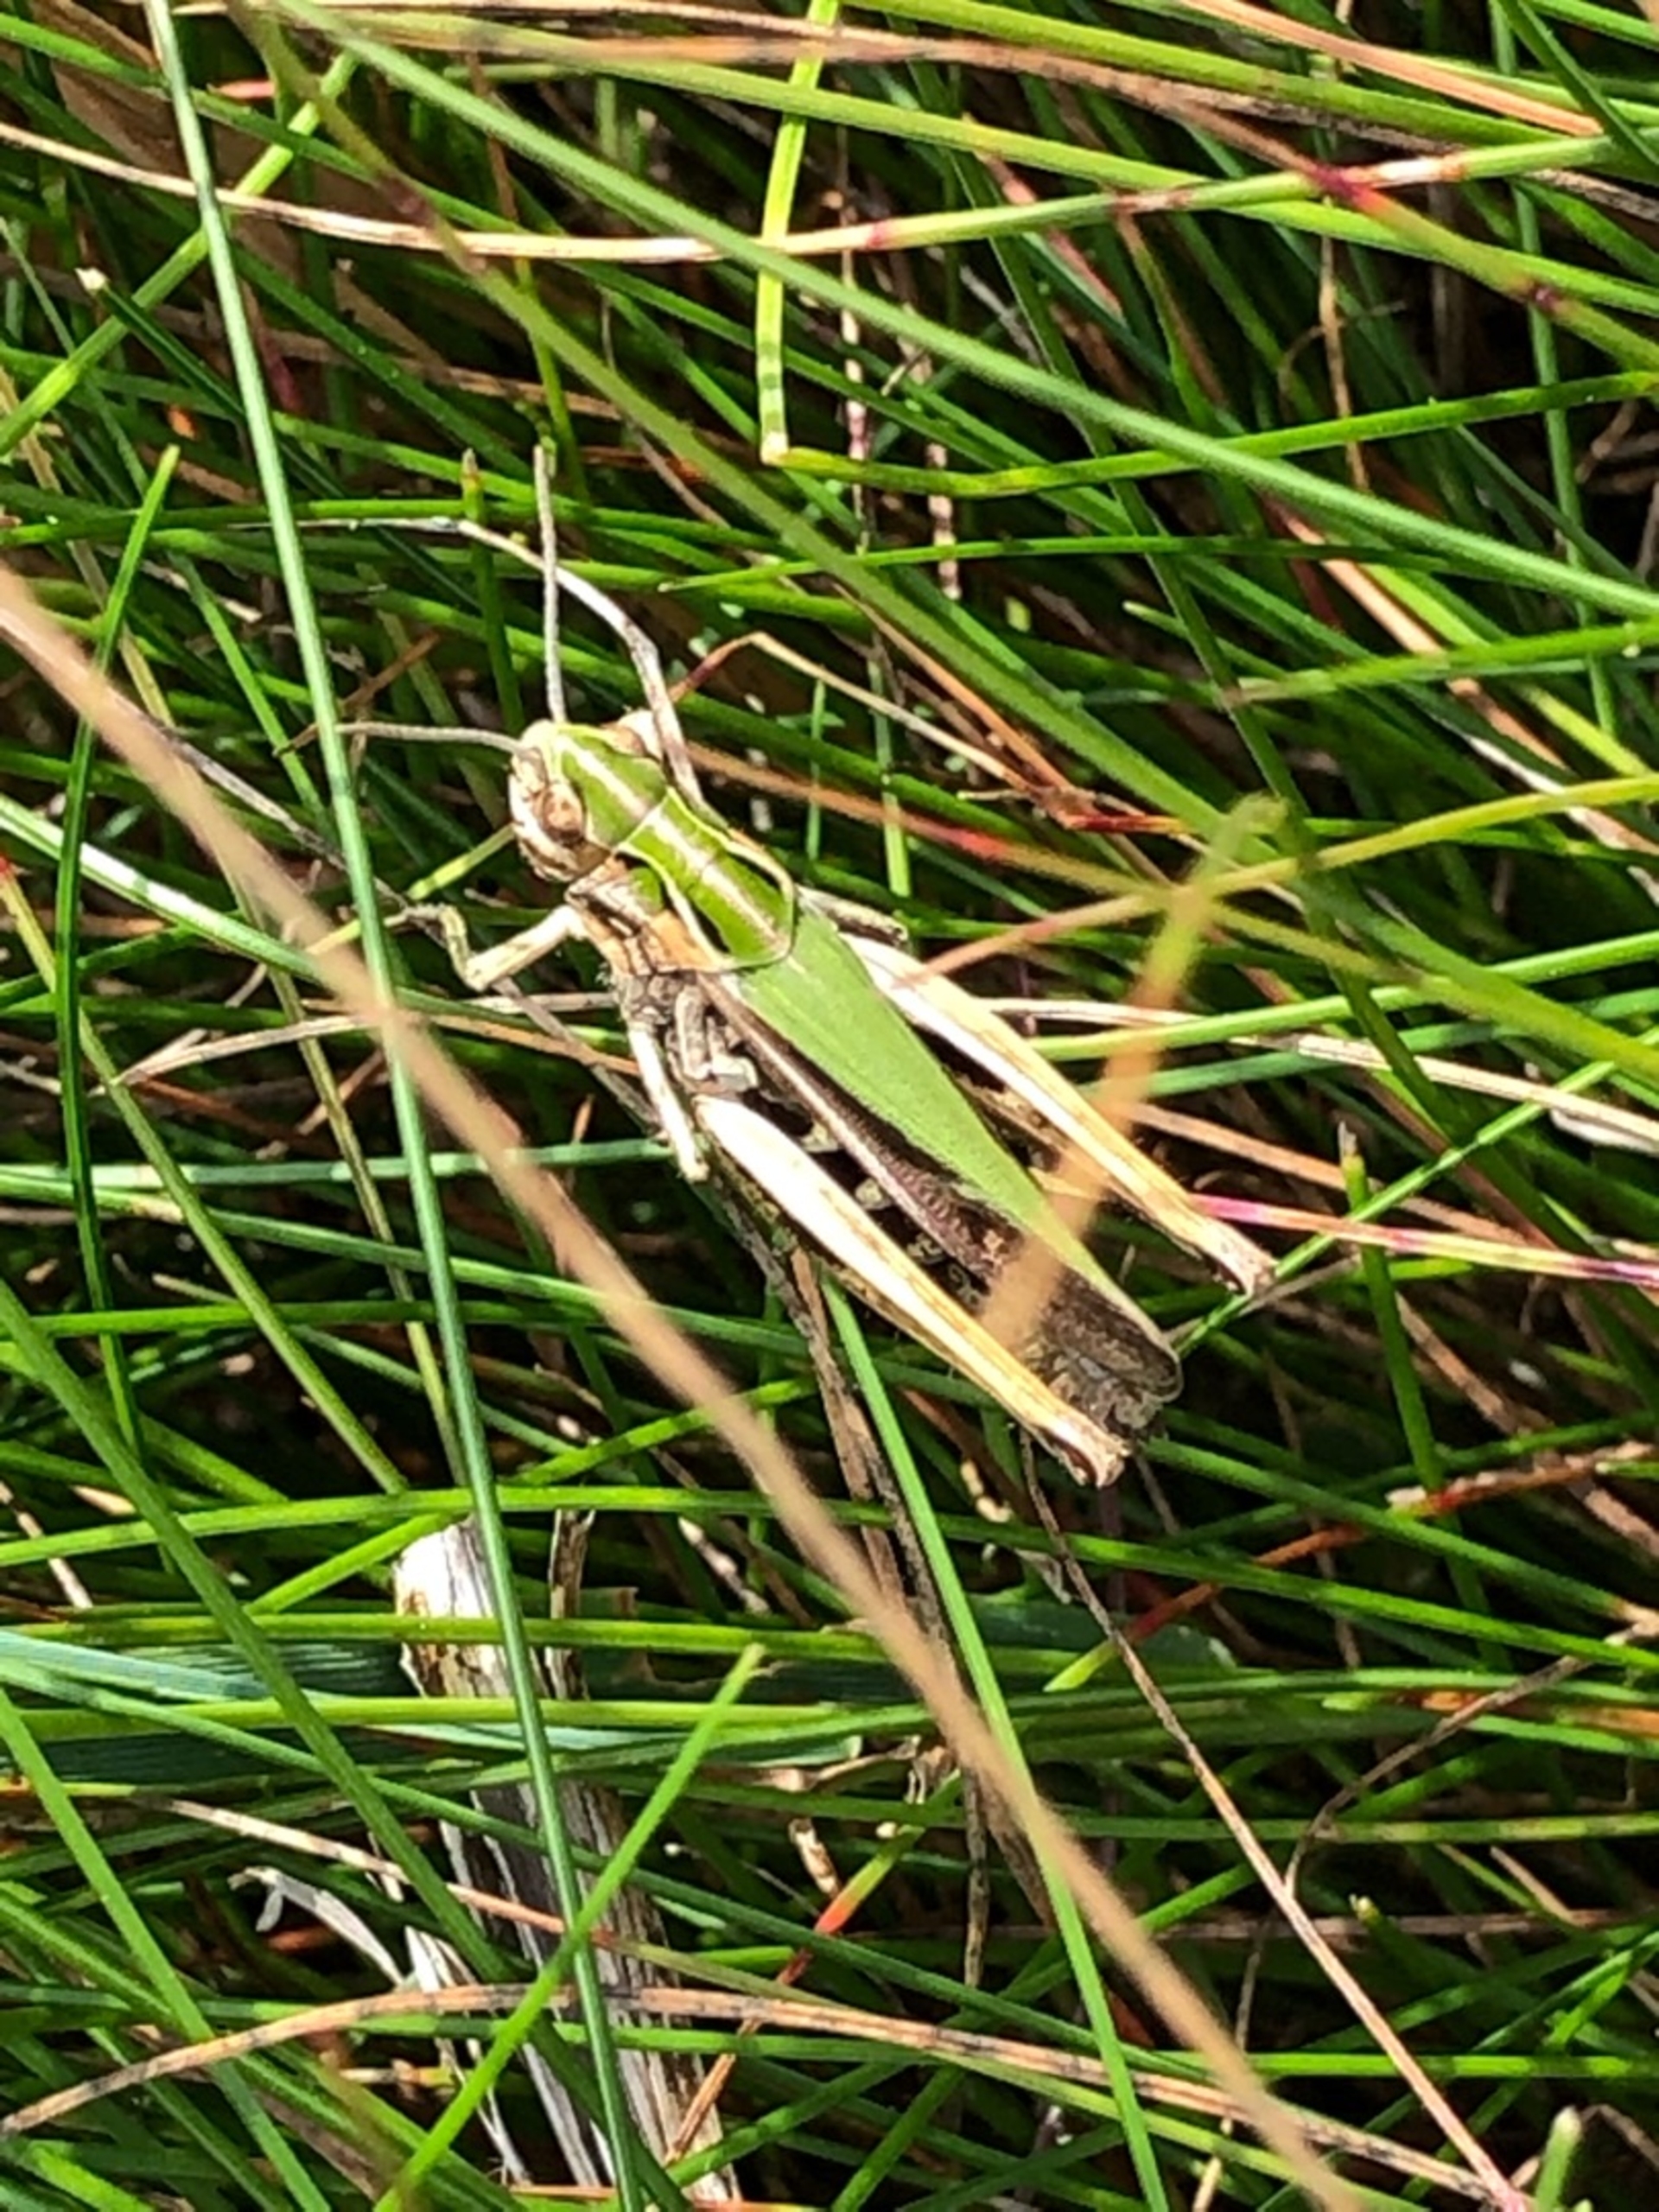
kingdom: Animalia
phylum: Arthropoda
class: Insecta
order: Orthoptera
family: Acrididae
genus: Omocestus
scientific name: Omocestus viridulus
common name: Lynggræshoppe
